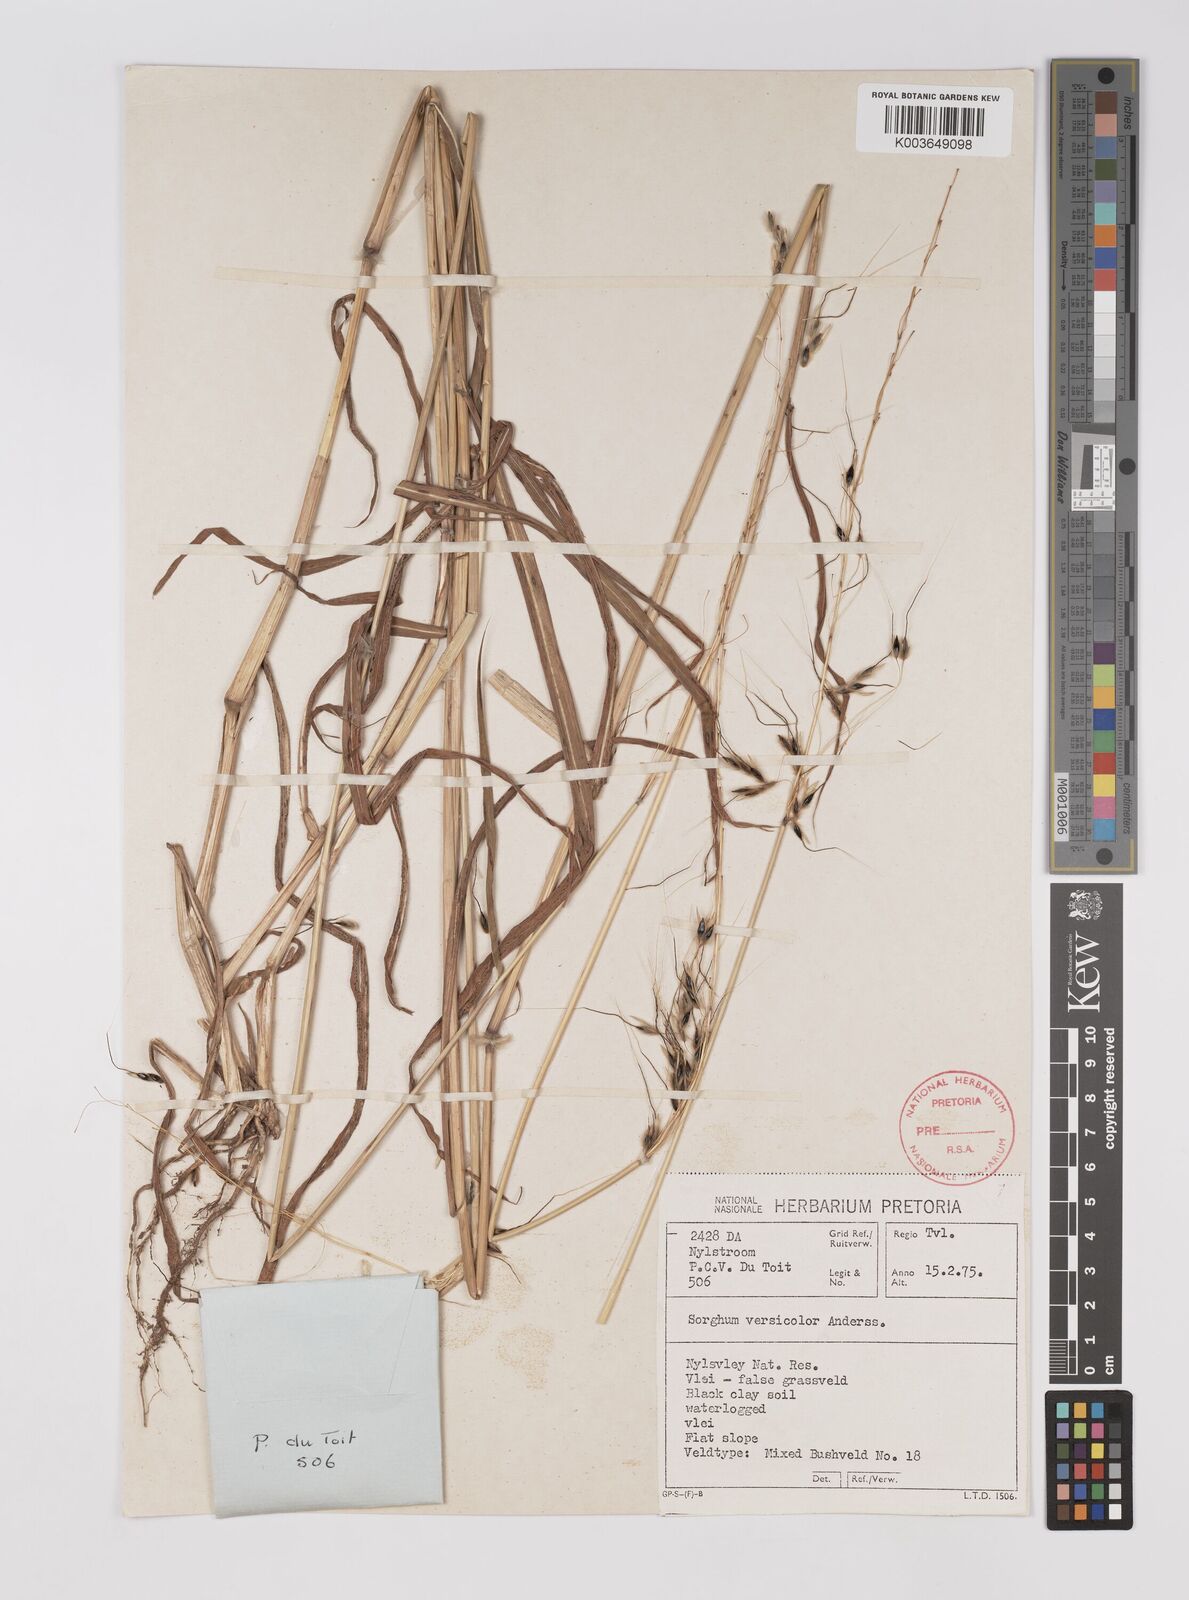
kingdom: Plantae
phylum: Tracheophyta
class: Liliopsida
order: Poales
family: Poaceae
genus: Sarga
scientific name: Sarga versicolor
